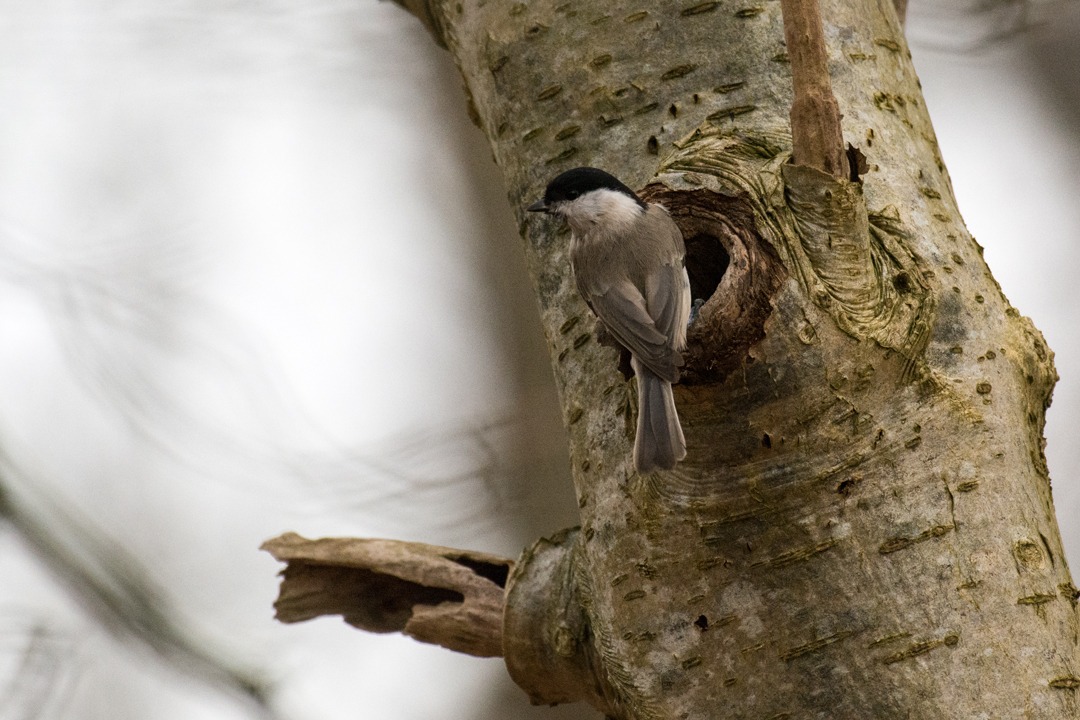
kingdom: Animalia
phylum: Chordata
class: Aves
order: Passeriformes
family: Paridae
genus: Poecile
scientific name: Poecile palustris
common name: Sumpmejse
